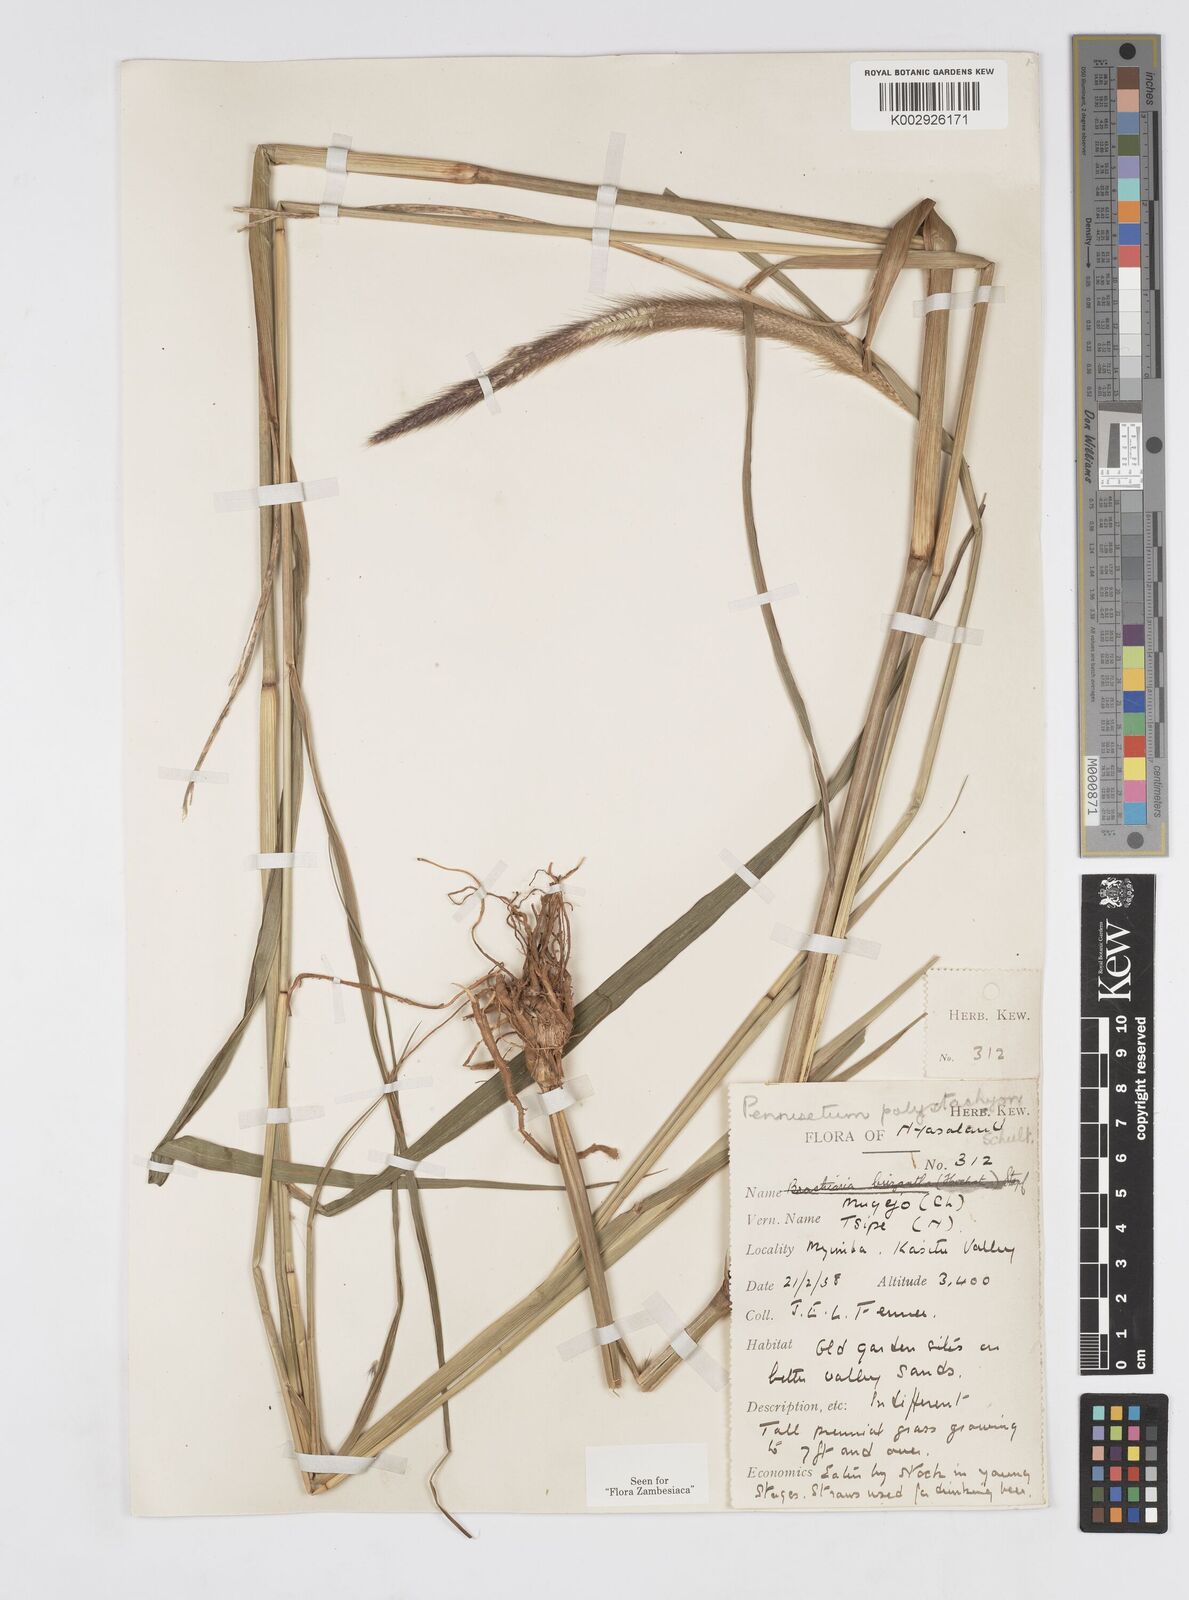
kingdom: Plantae
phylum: Tracheophyta
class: Liliopsida
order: Poales
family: Poaceae
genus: Setaria
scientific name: Setaria parviflora
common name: Knotroot bristle-grass
